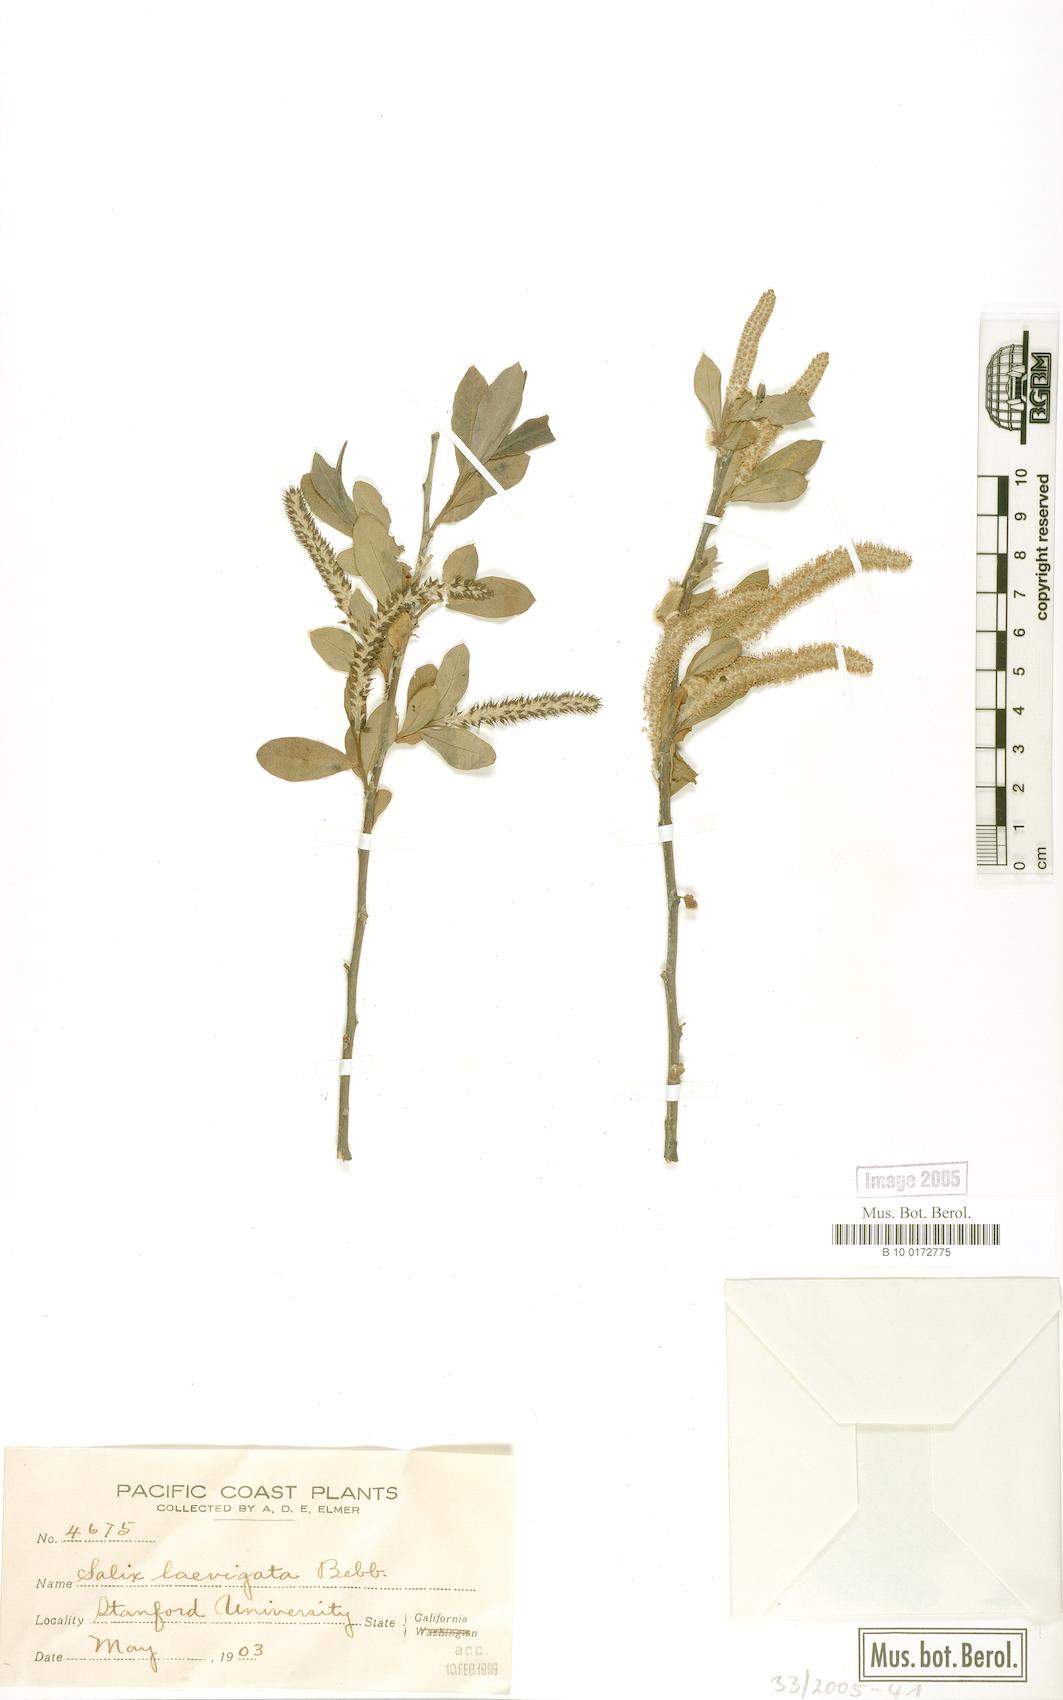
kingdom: Plantae
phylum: Tracheophyta
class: Magnoliopsida
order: Malpighiales
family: Salicaceae
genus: Salix
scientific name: Salix laevigata
